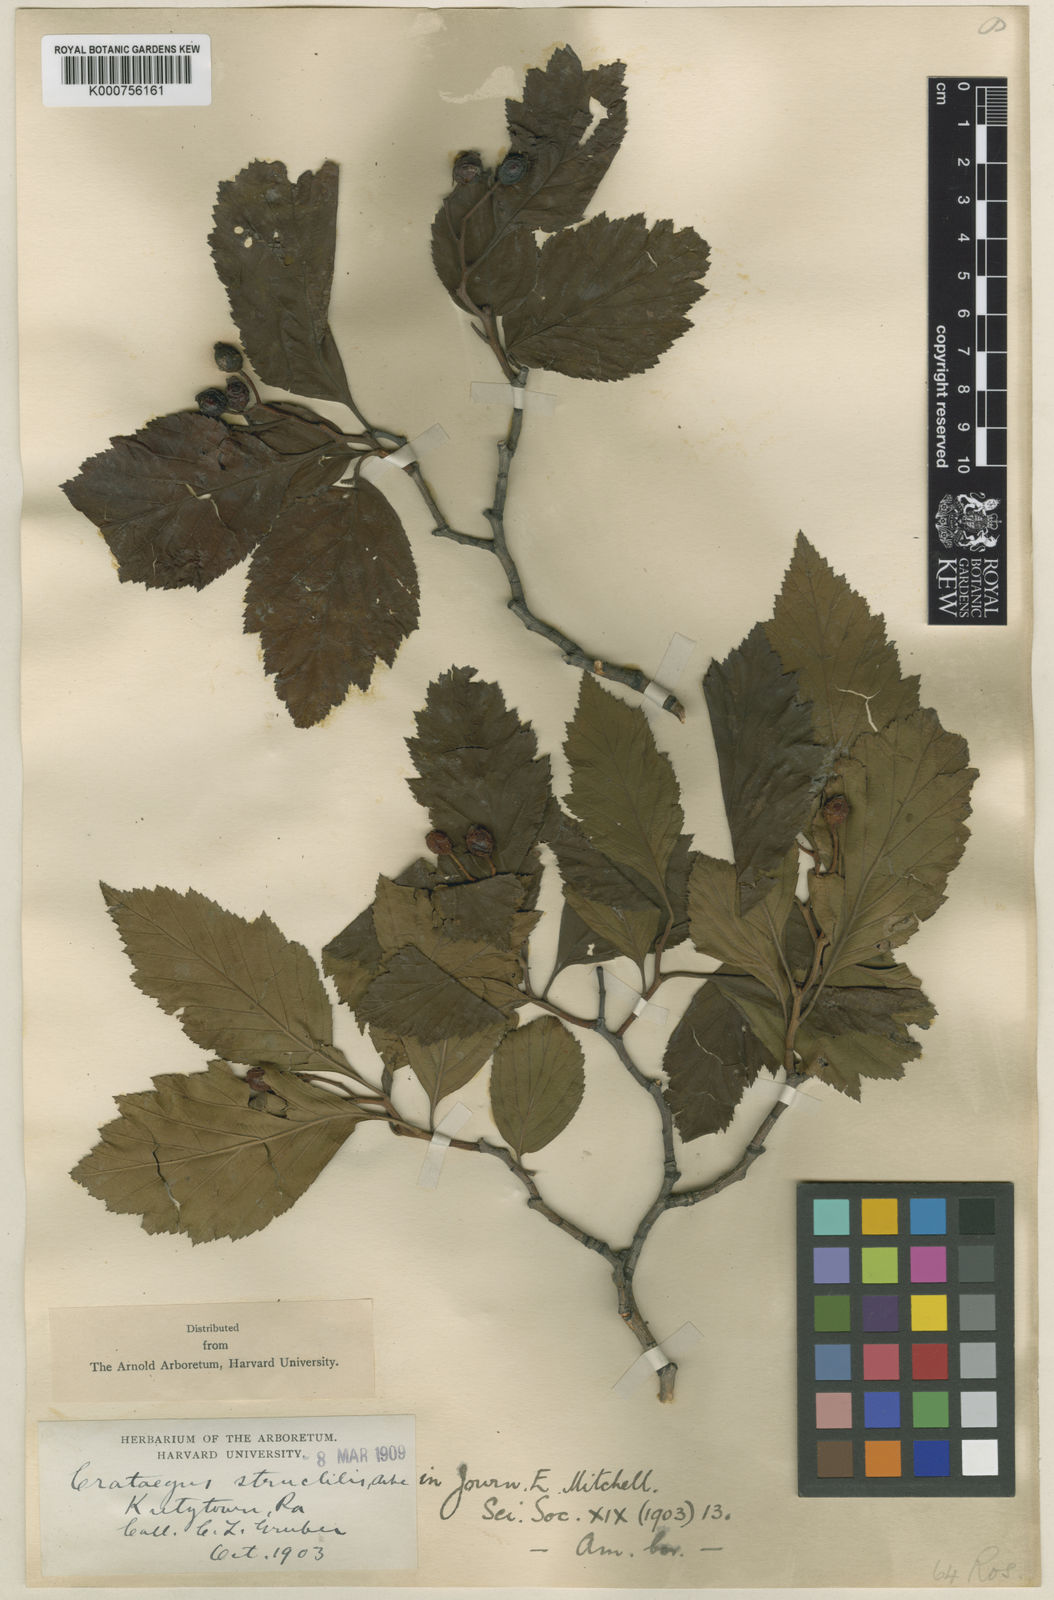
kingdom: Plantae
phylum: Tracheophyta
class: Magnoliopsida
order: Rosales
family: Rosaceae
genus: Crataegus
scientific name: Crataegus calpodendron
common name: Pear hawthorn
